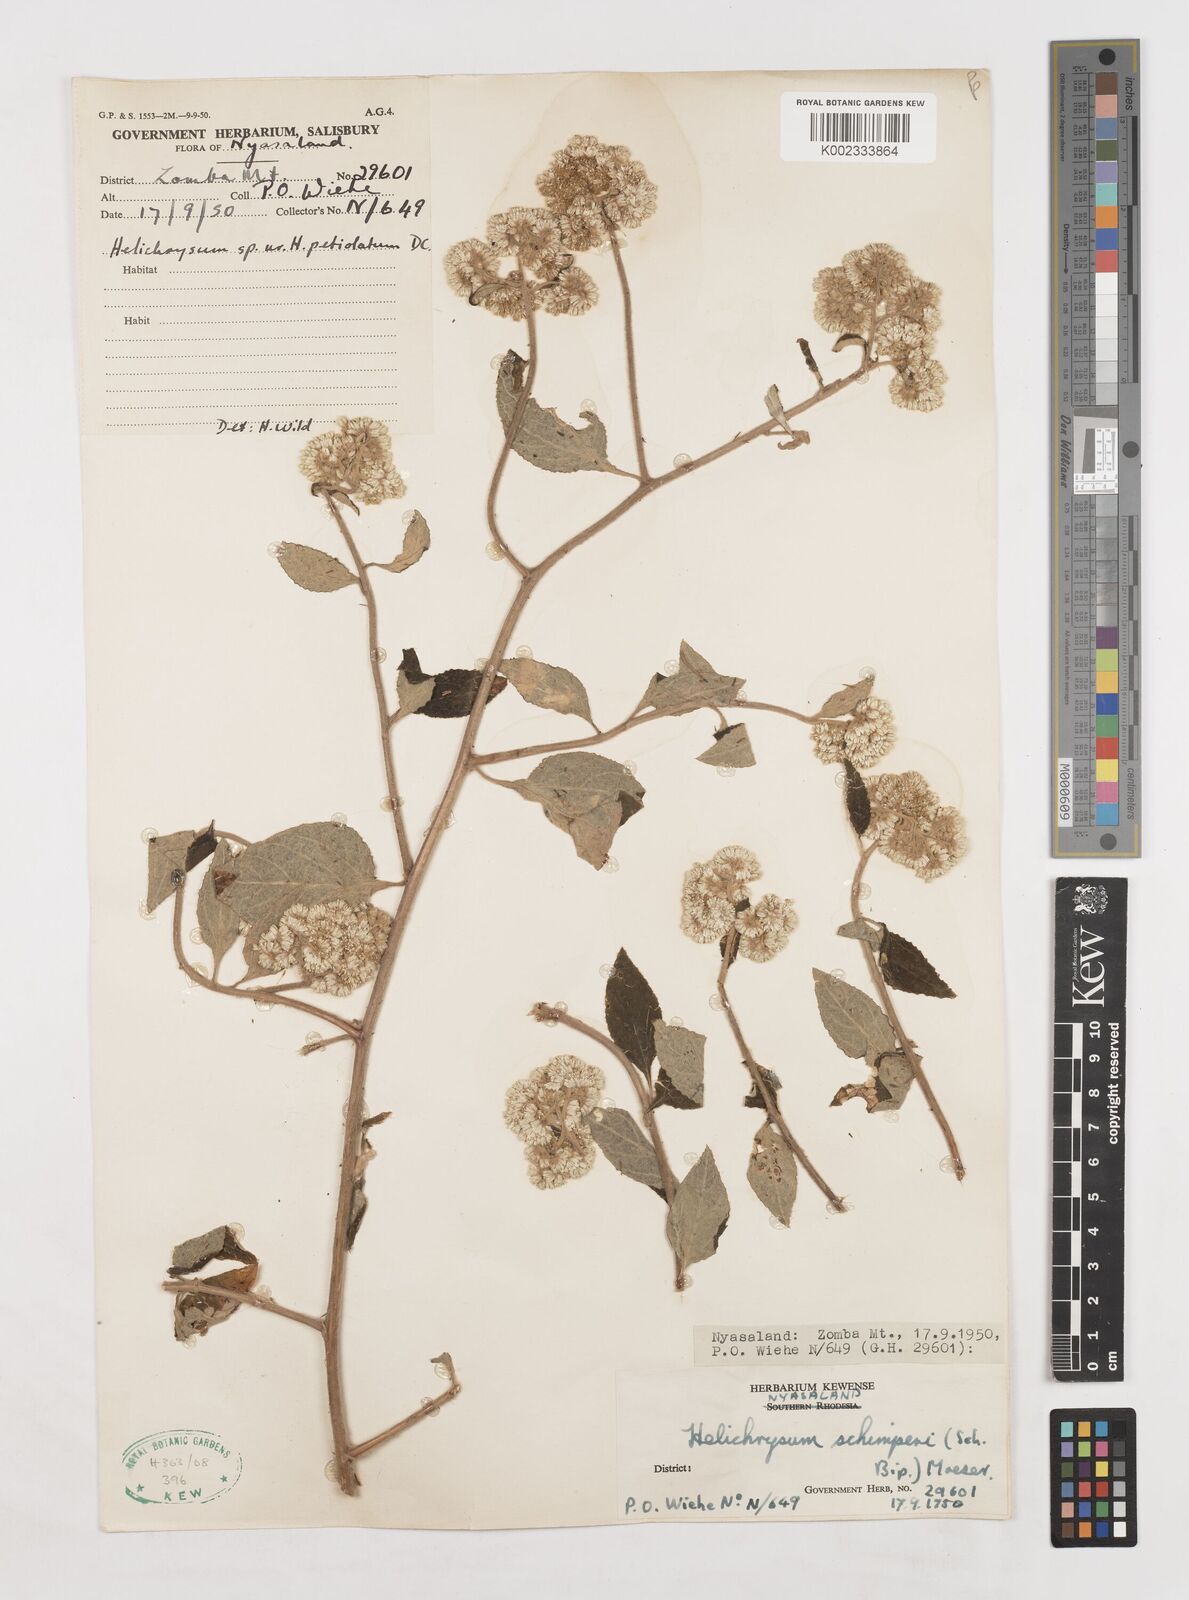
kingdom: Plantae
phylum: Tracheophyta
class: Magnoliopsida
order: Asterales
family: Asteraceae
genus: Helichrysum
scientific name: Helichrysum schimperi
